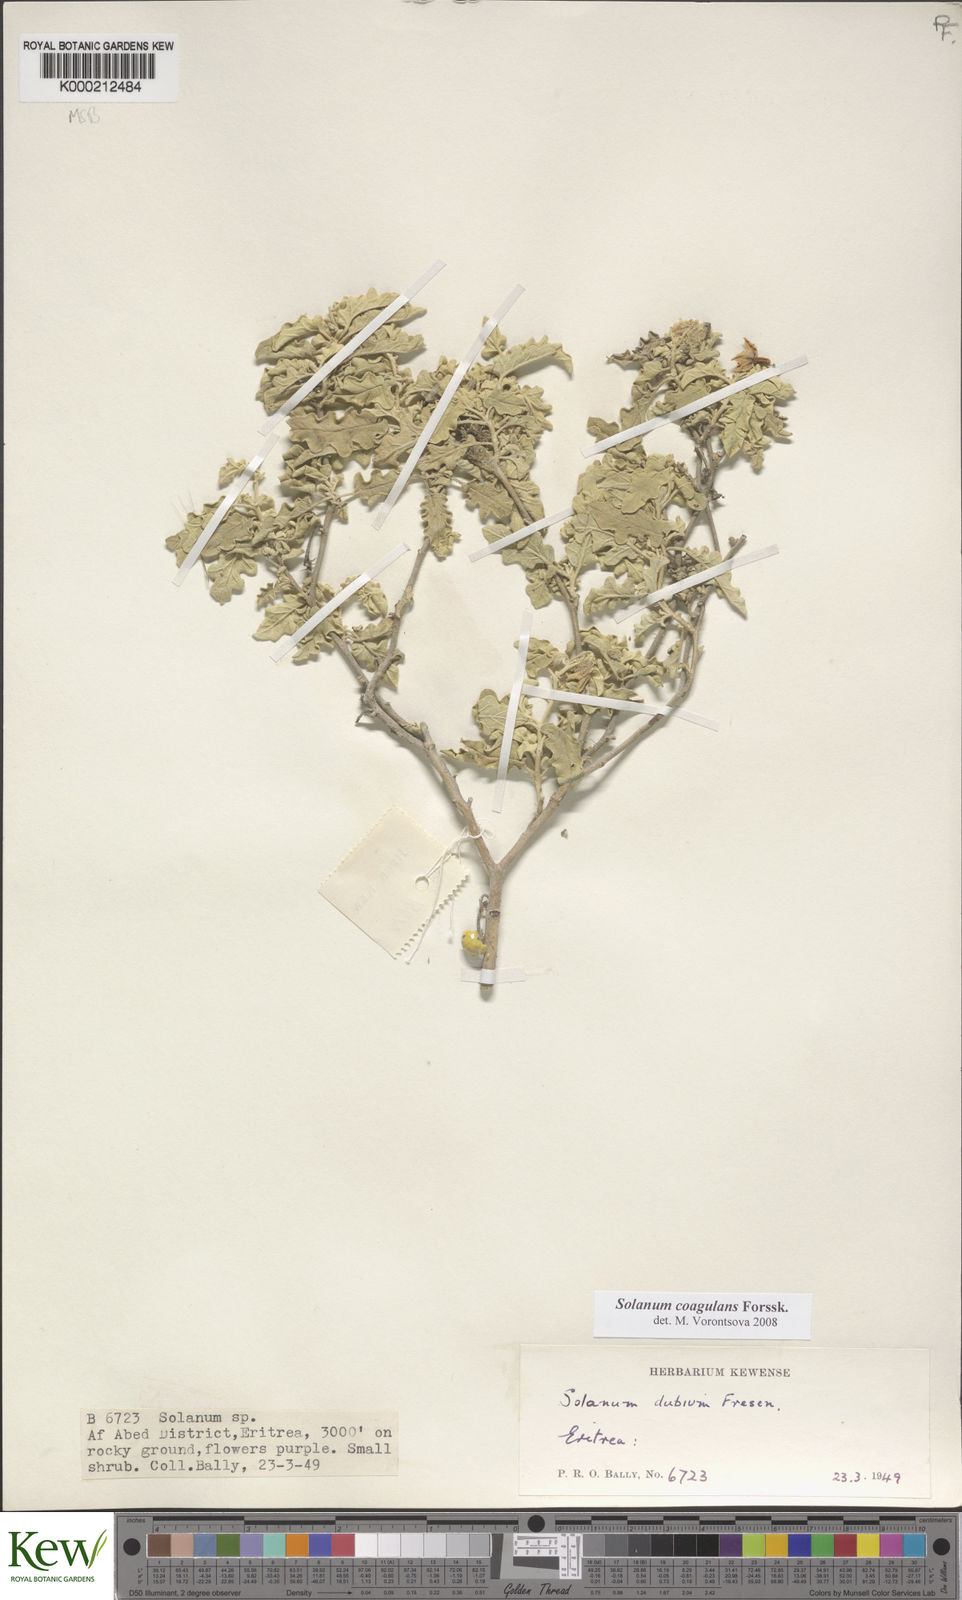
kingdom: Plantae
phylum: Tracheophyta
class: Magnoliopsida
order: Solanales
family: Solanaceae
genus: Solanum
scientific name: Solanum coagulans
